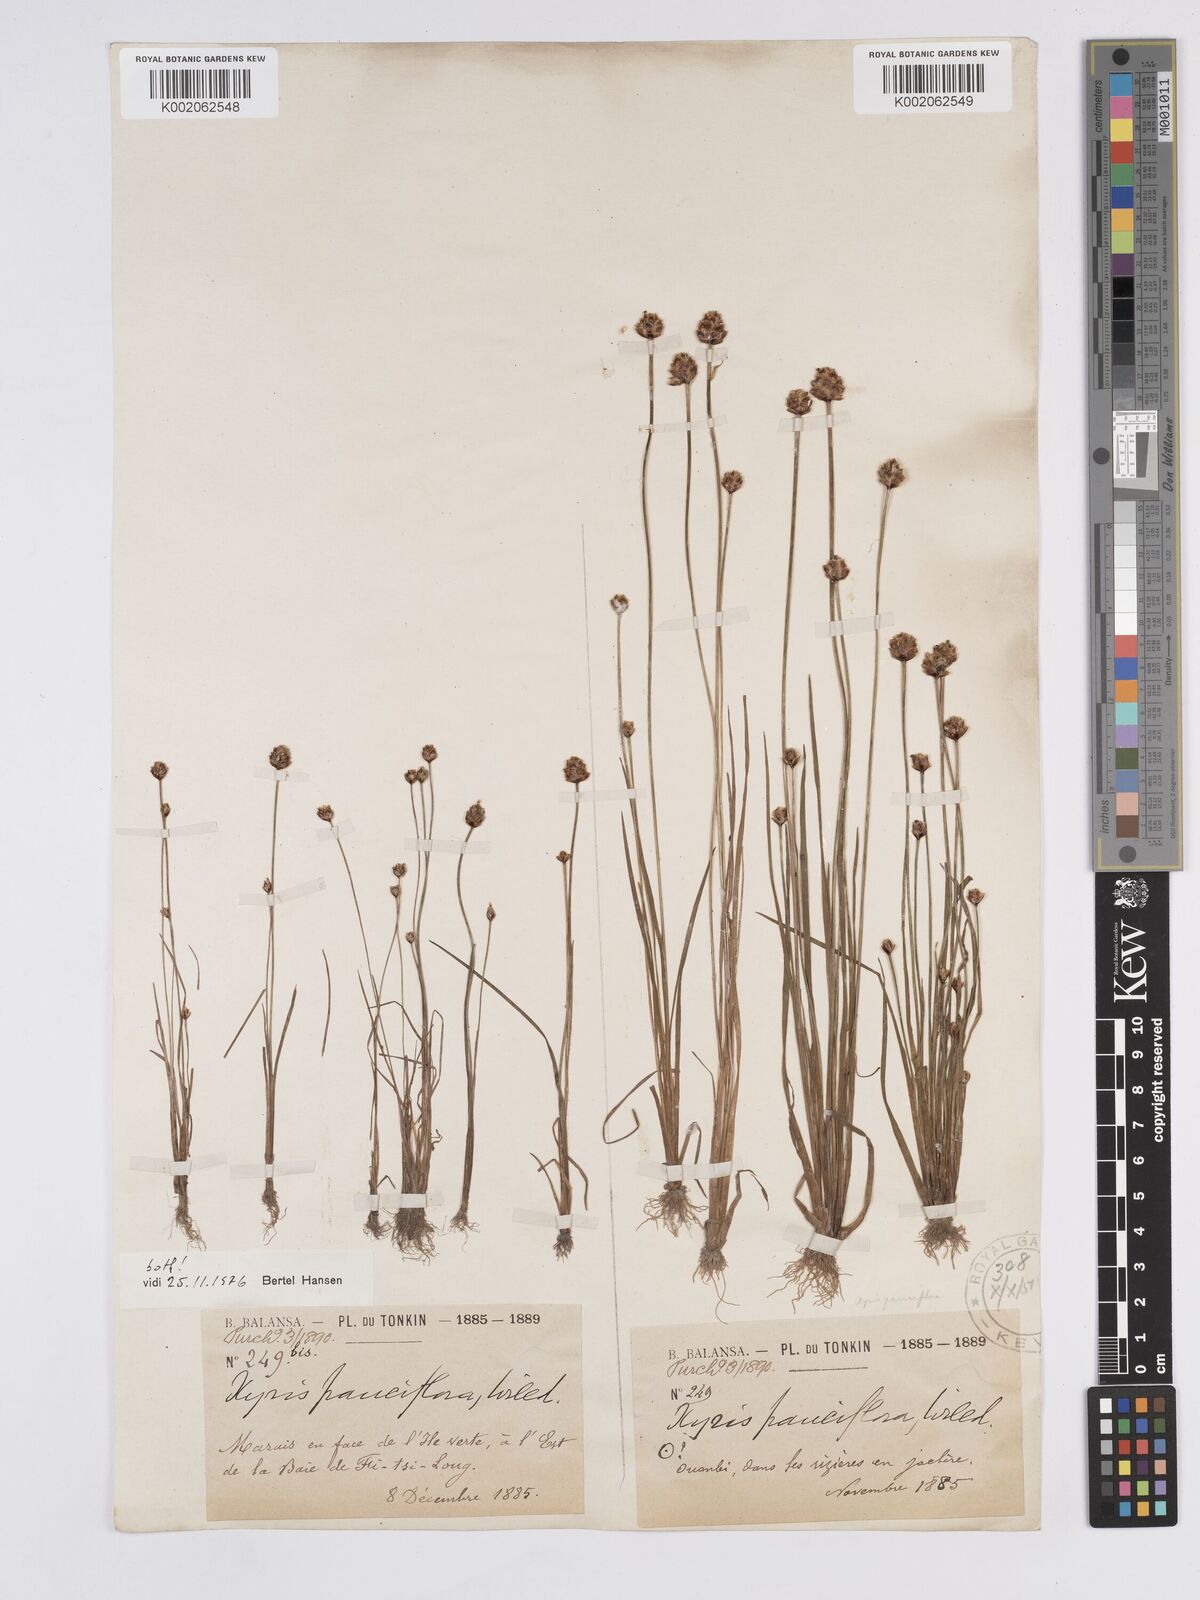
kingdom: Plantae
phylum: Tracheophyta
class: Liliopsida
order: Poales
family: Xyridaceae
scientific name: Xyridaceae
